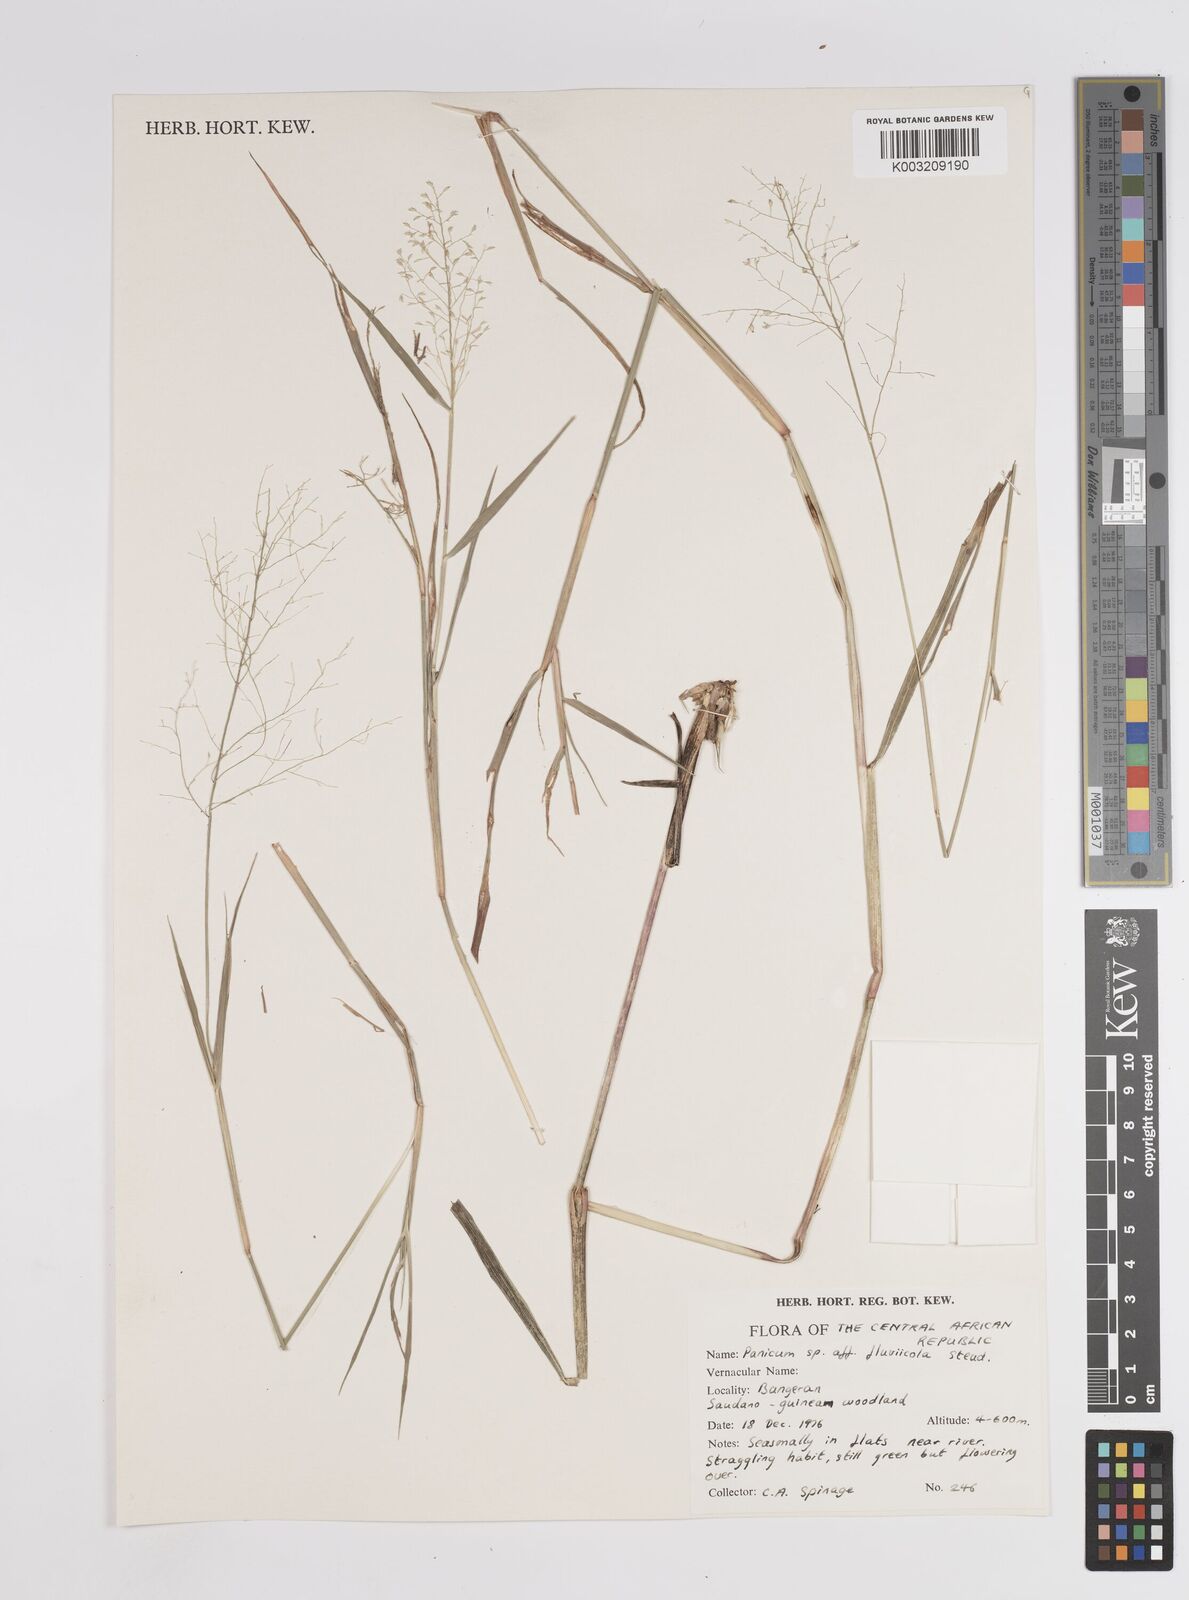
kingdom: Plantae
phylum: Tracheophyta
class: Liliopsida
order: Poales
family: Poaceae
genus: Panicum
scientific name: Panicum
